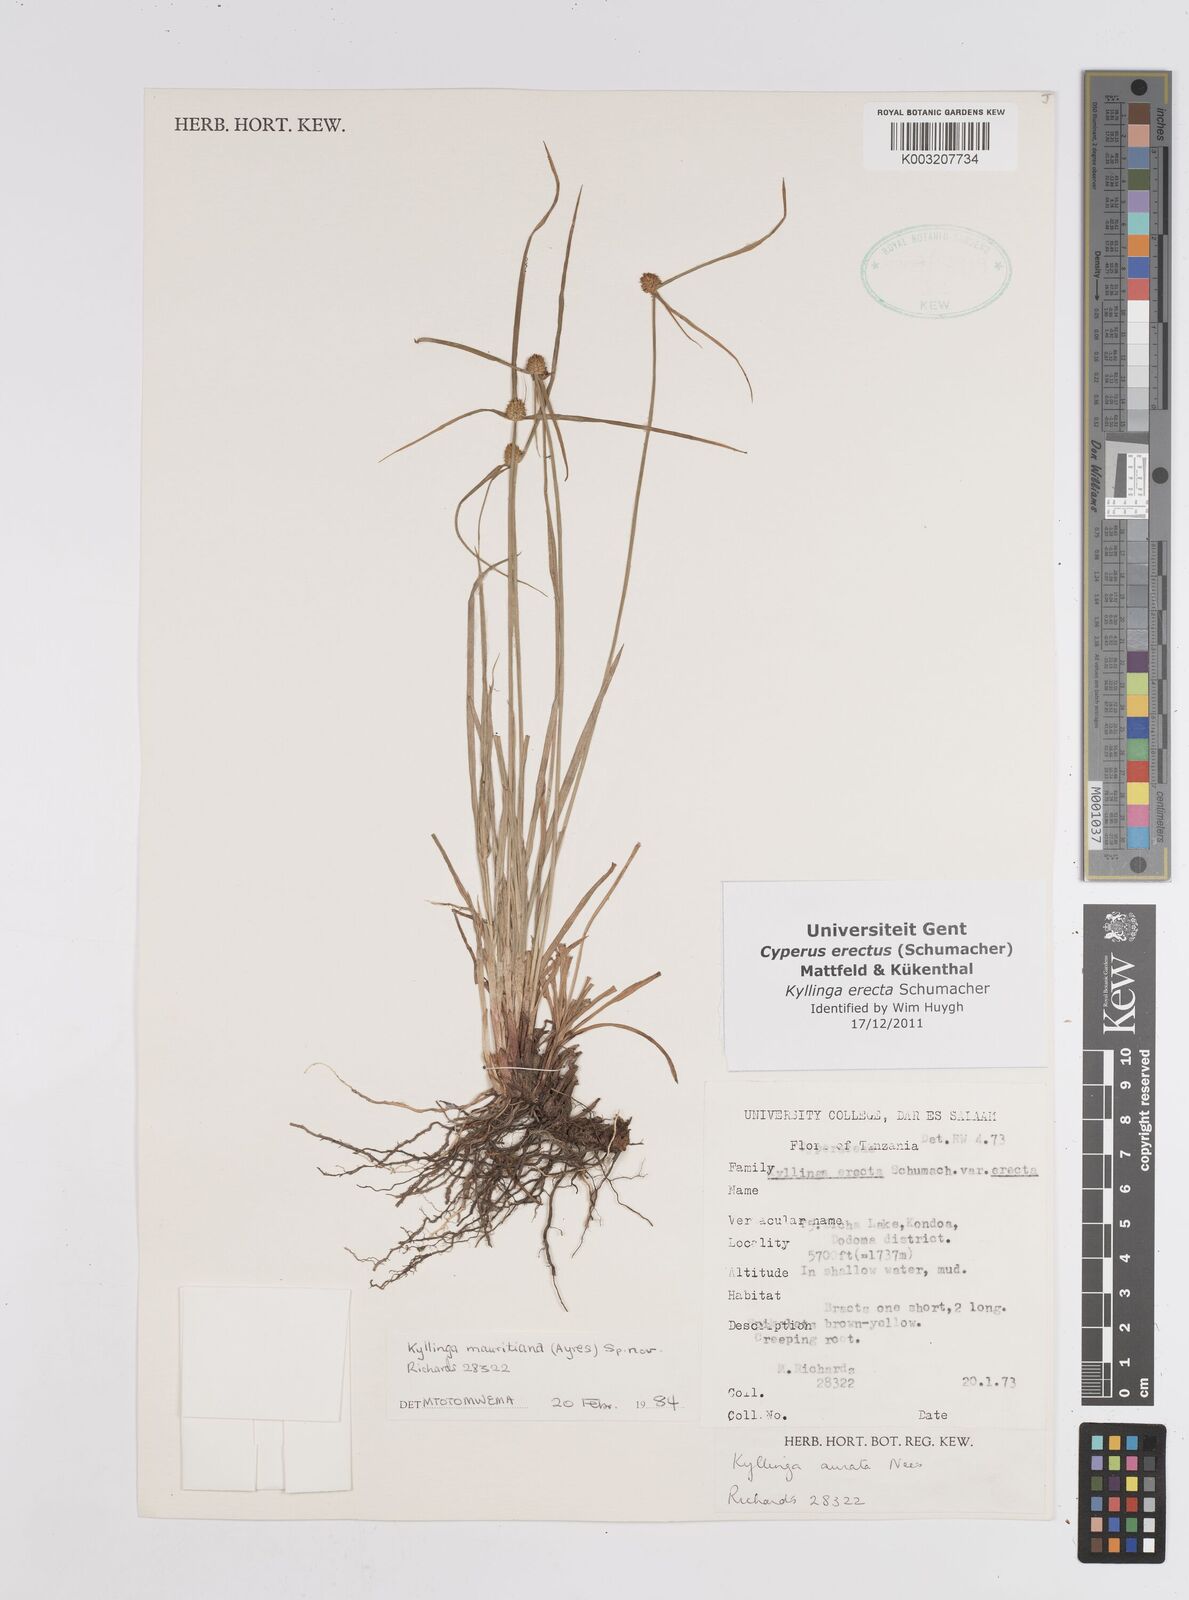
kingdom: Plantae
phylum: Tracheophyta
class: Liliopsida
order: Poales
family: Cyperaceae
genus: Cyperus
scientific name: Cyperus erectus
